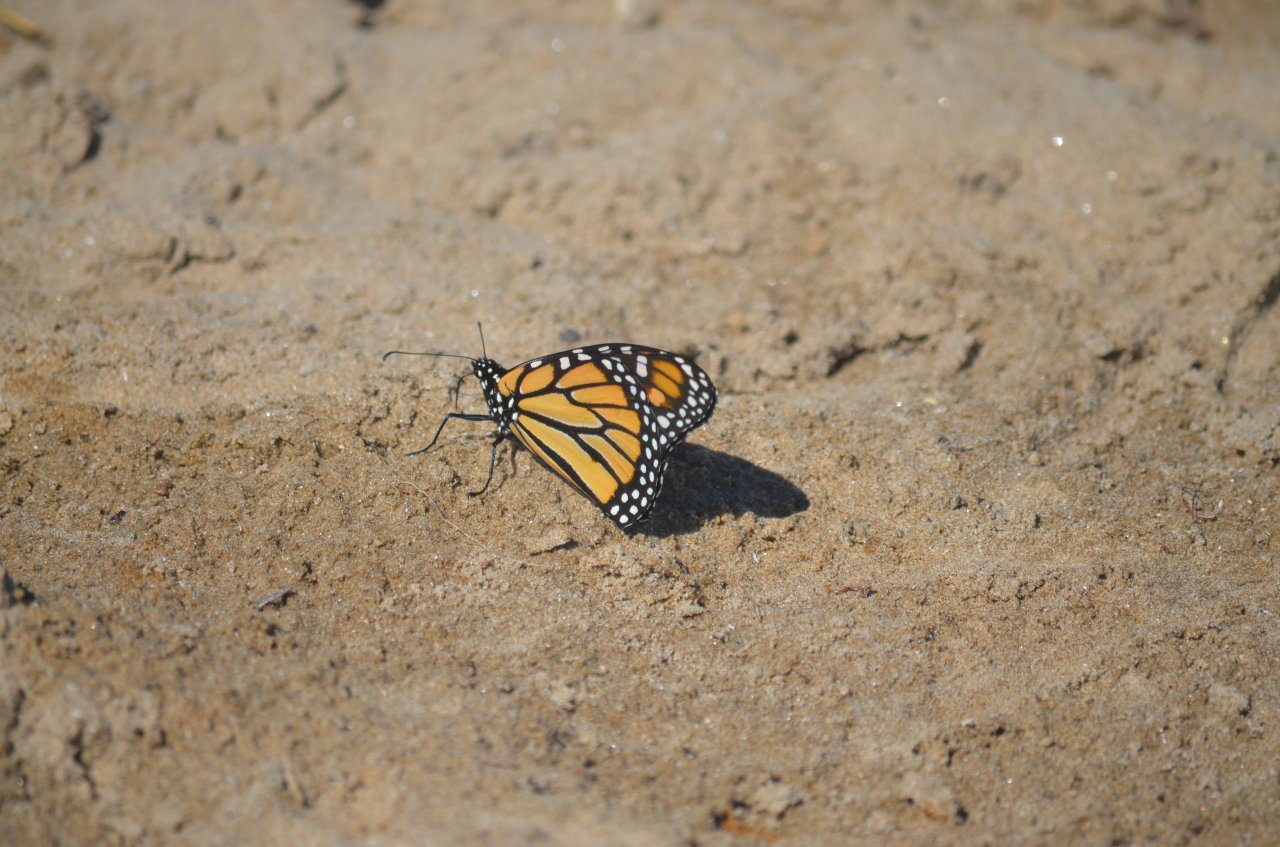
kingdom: Animalia
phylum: Arthropoda
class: Insecta
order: Lepidoptera
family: Nymphalidae
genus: Danaus
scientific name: Danaus plexippus
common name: Monarch
